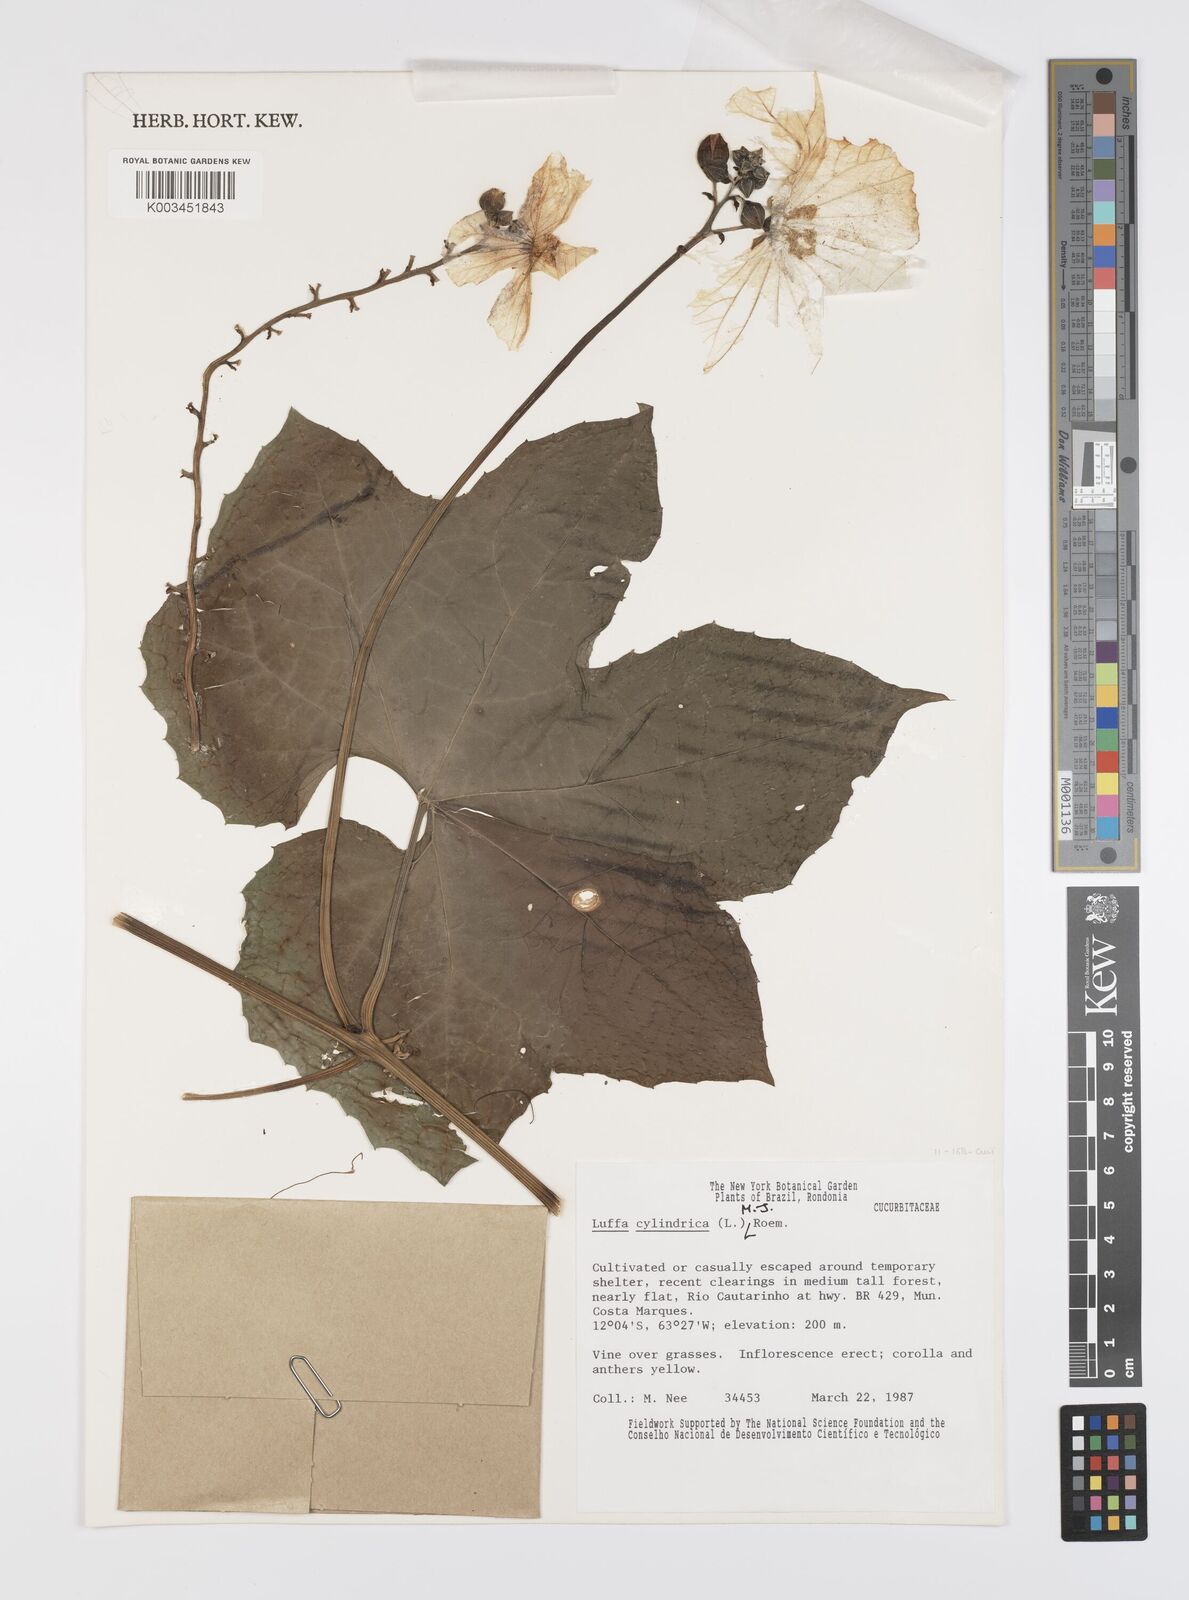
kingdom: Plantae
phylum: Tracheophyta
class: Magnoliopsida
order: Cucurbitales
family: Cucurbitaceae
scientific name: Cucurbitaceae
